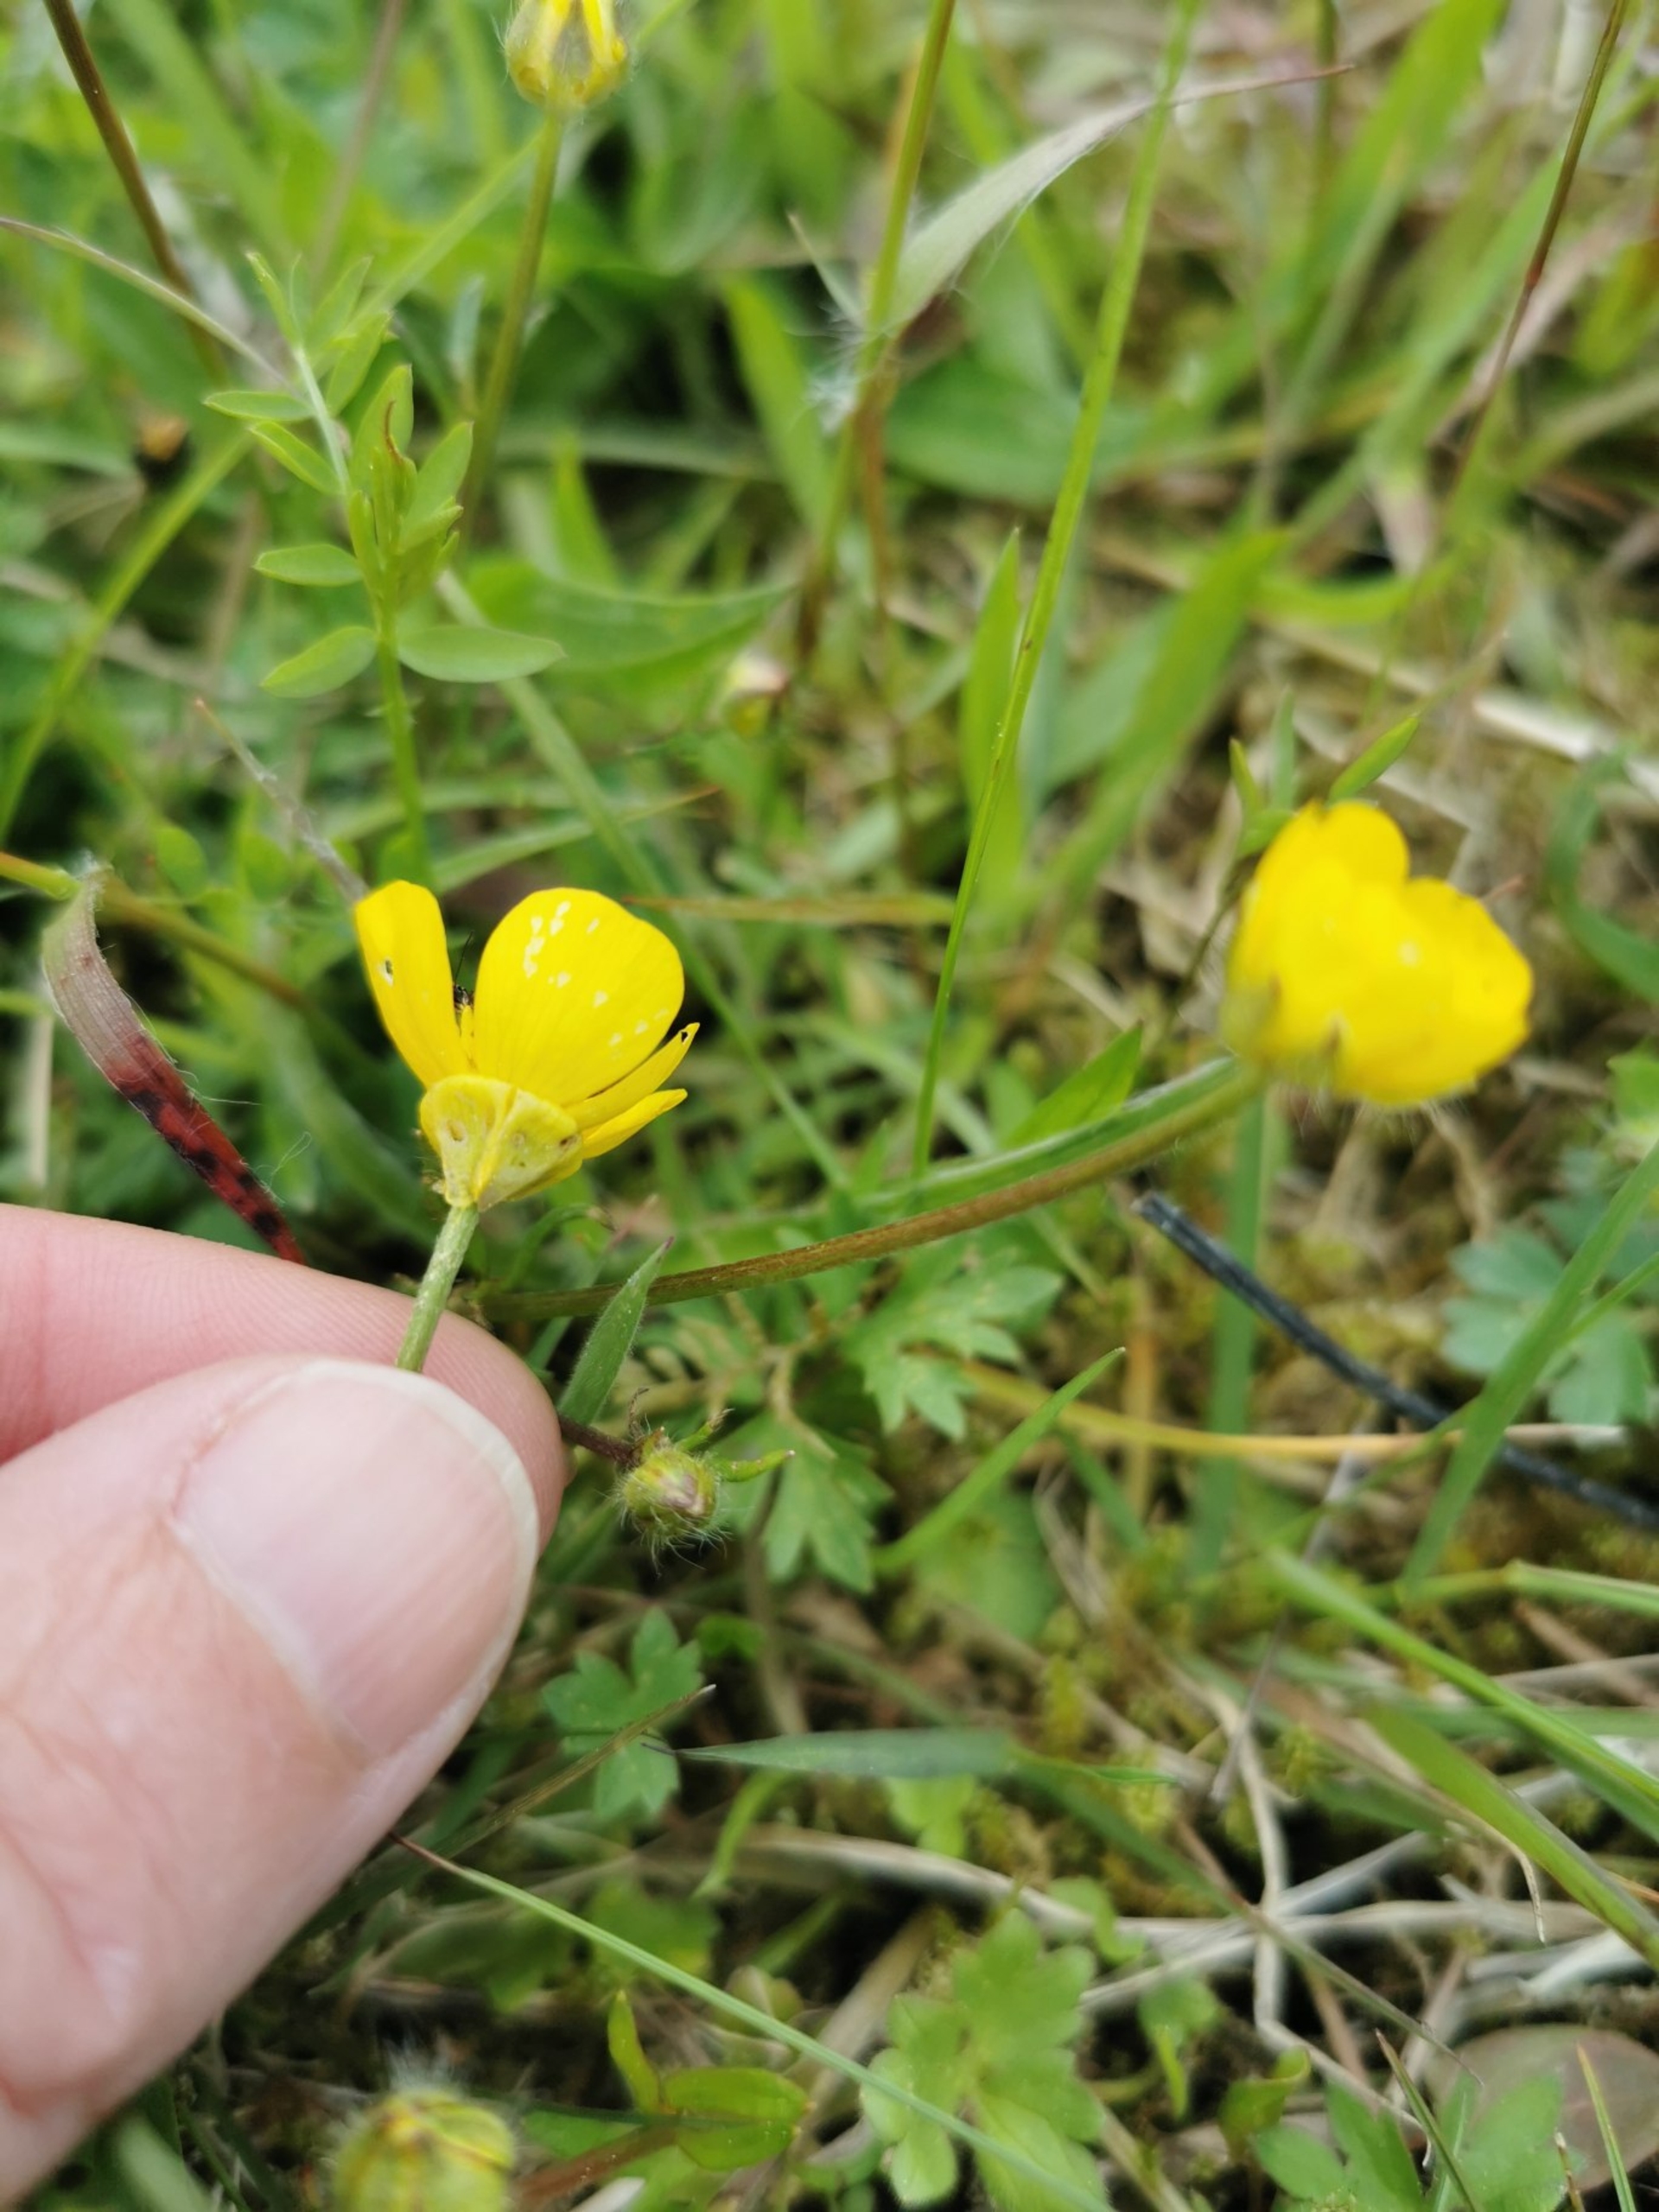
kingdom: Plantae
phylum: Tracheophyta
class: Magnoliopsida
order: Ranunculales
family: Ranunculaceae
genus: Ranunculus
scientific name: Ranunculus bulbosus
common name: Knold-ranunkel
